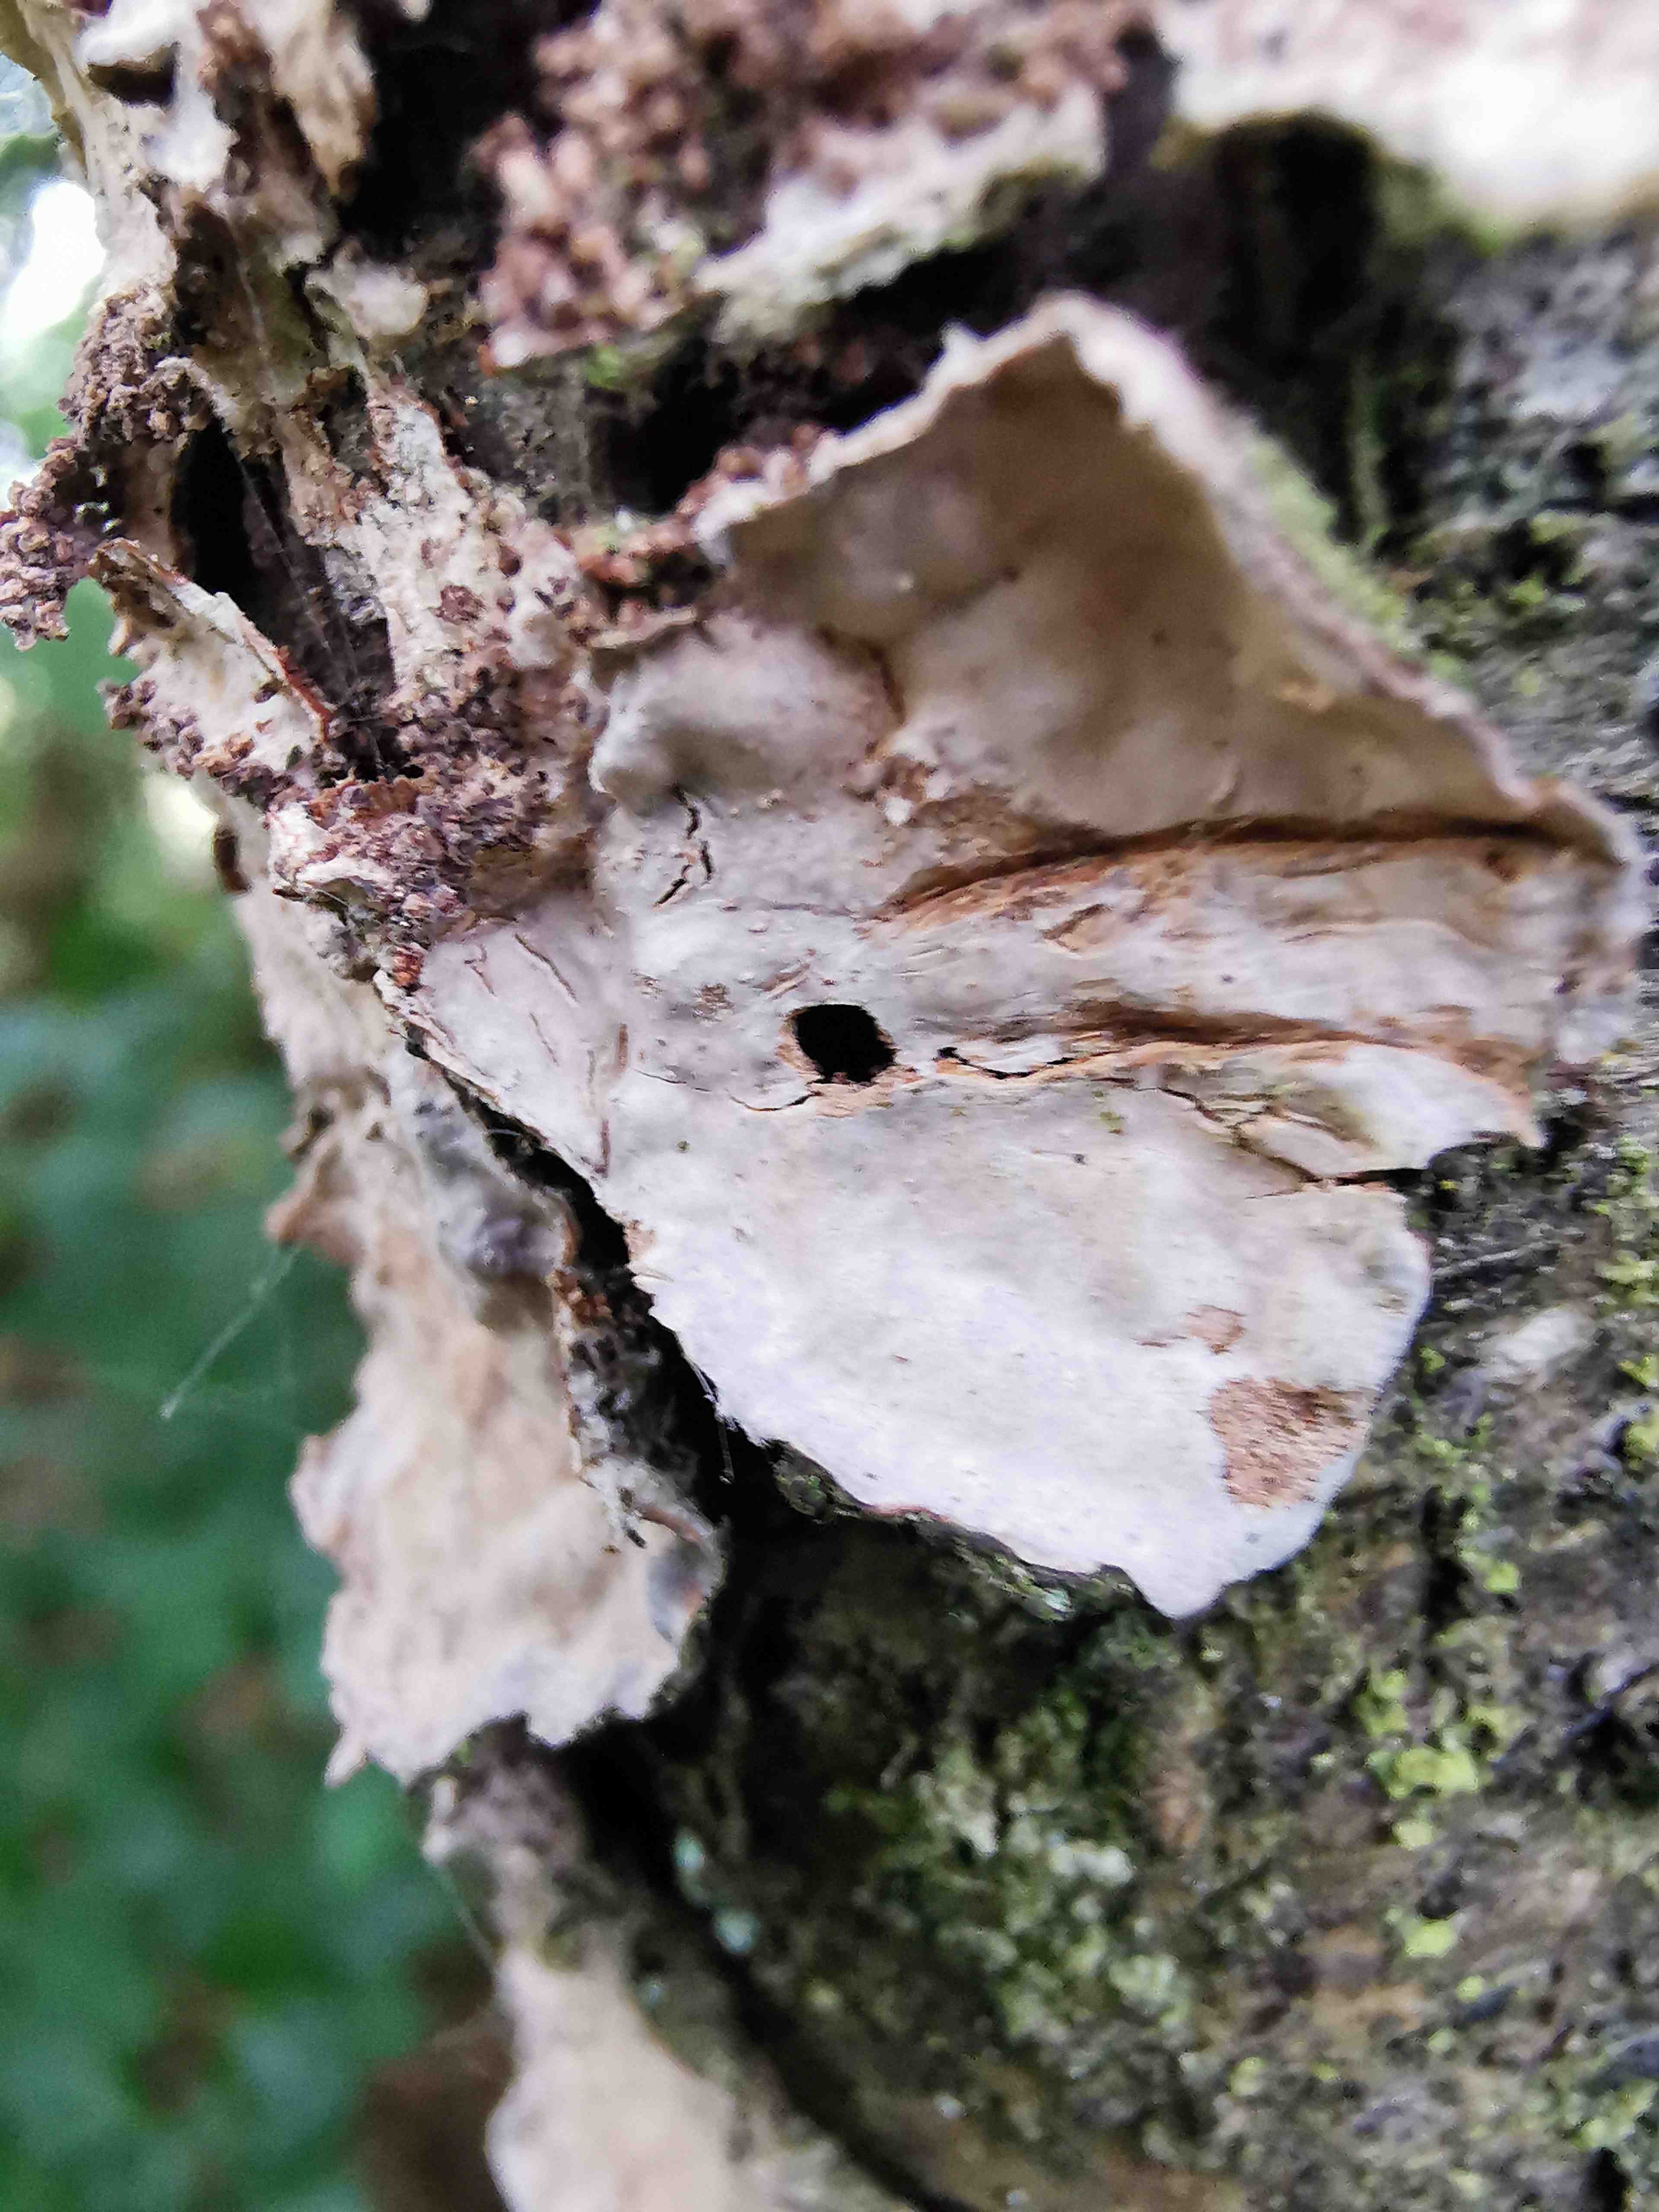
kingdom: Fungi
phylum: Basidiomycota
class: Agaricomycetes
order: Russulales
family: Stereaceae
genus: Stereum
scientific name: Stereum rugosum
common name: rynket lædersvamp
